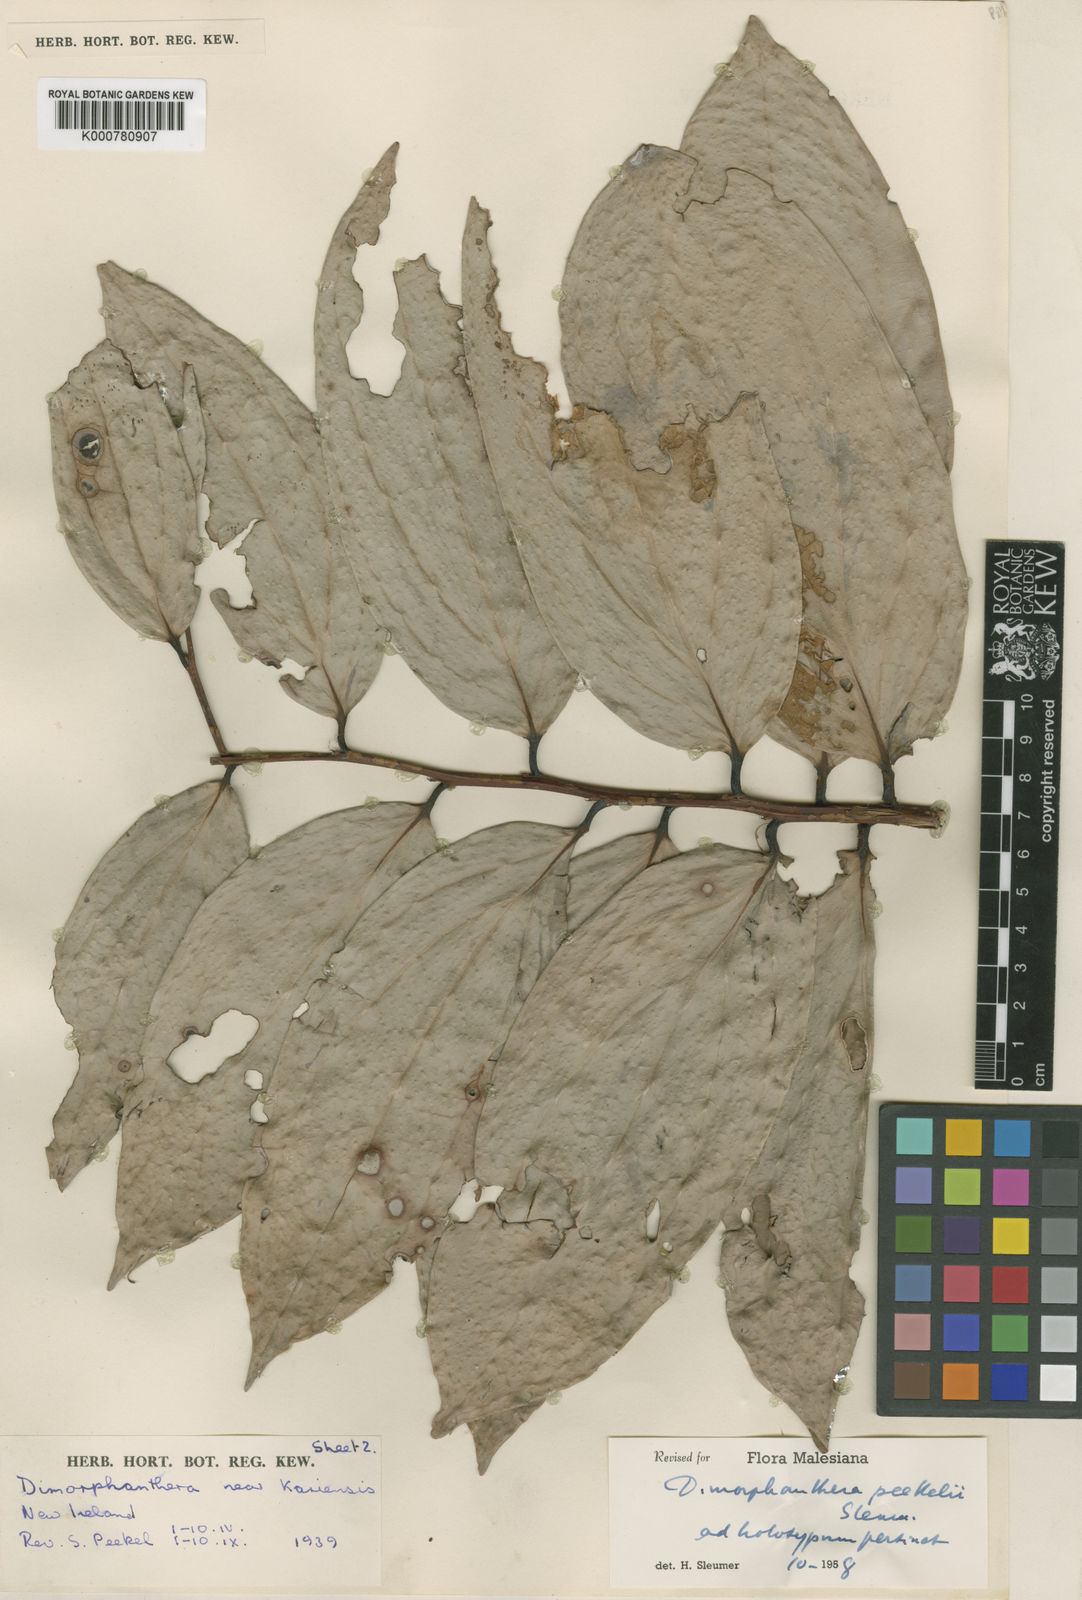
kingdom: Plantae
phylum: Tracheophyta
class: Magnoliopsida
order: Ericales
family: Ericaceae
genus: Dimorphanthera
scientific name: Dimorphanthera peekelii
